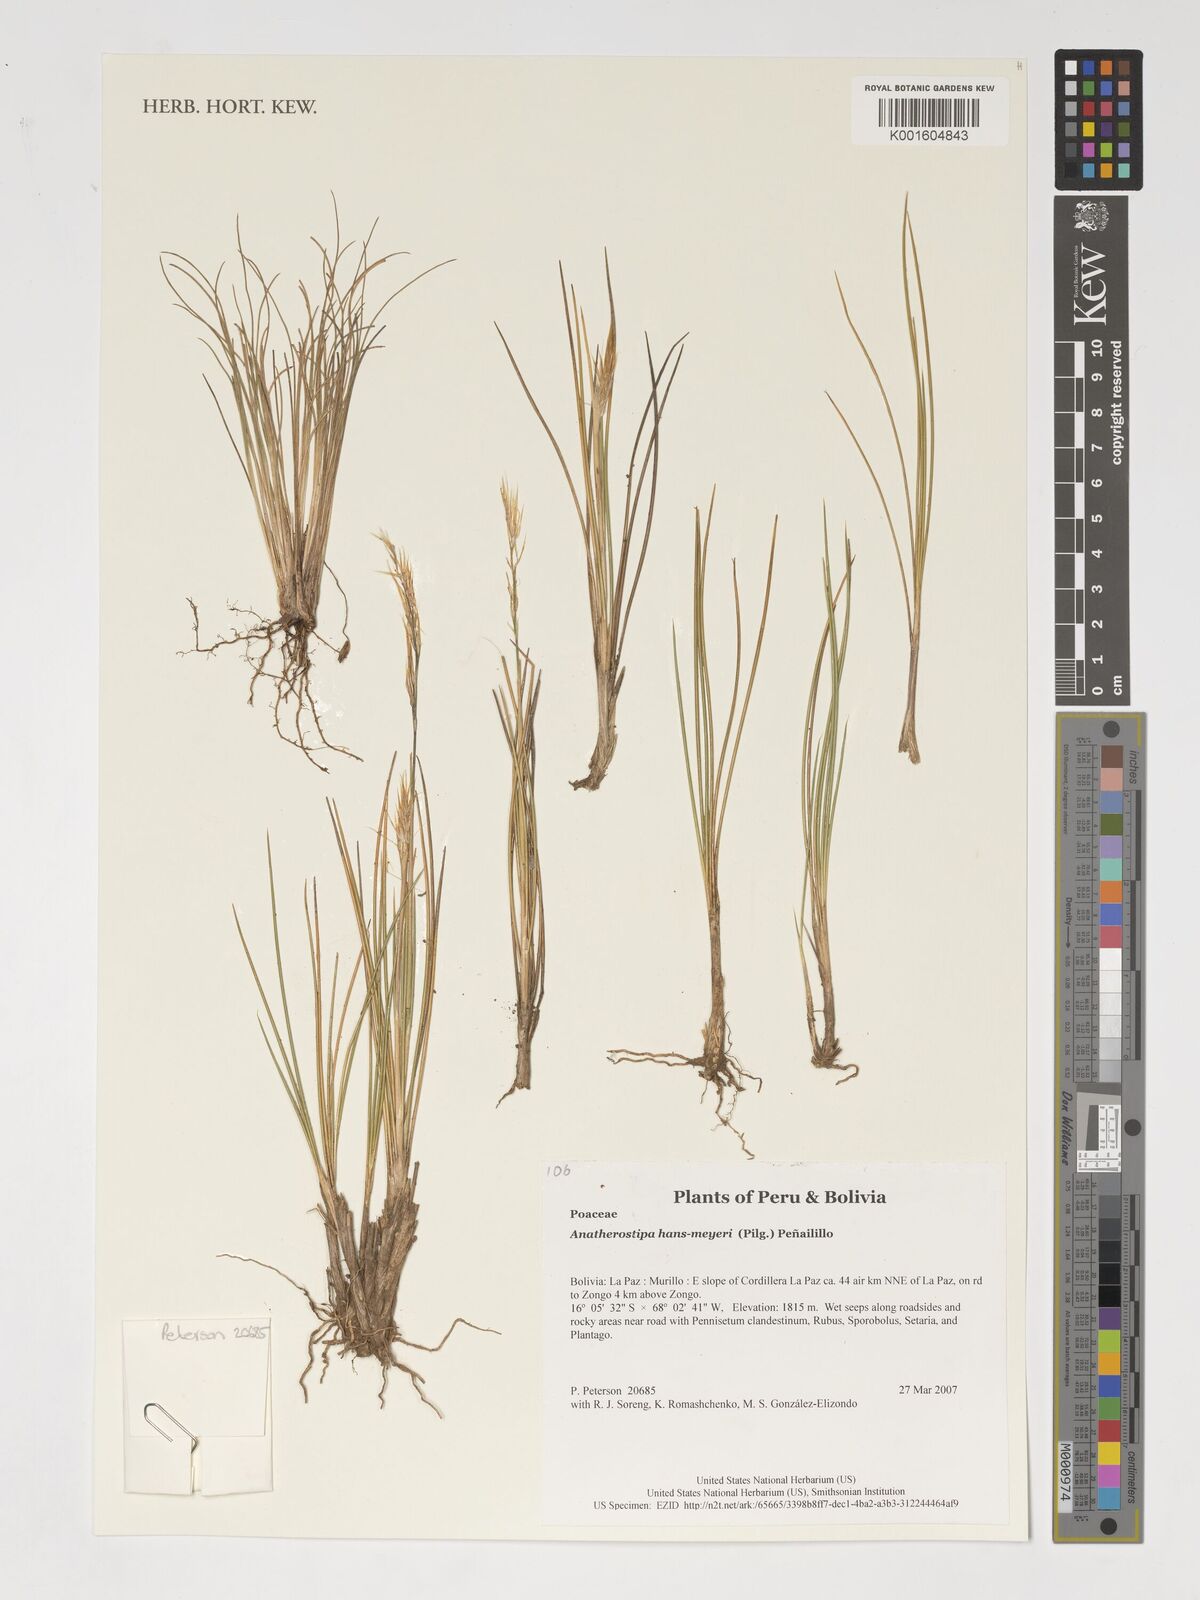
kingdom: Plantae
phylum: Tracheophyta
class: Liliopsida
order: Poales
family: Poaceae
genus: Stipa
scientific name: Stipa hans-meyeri
